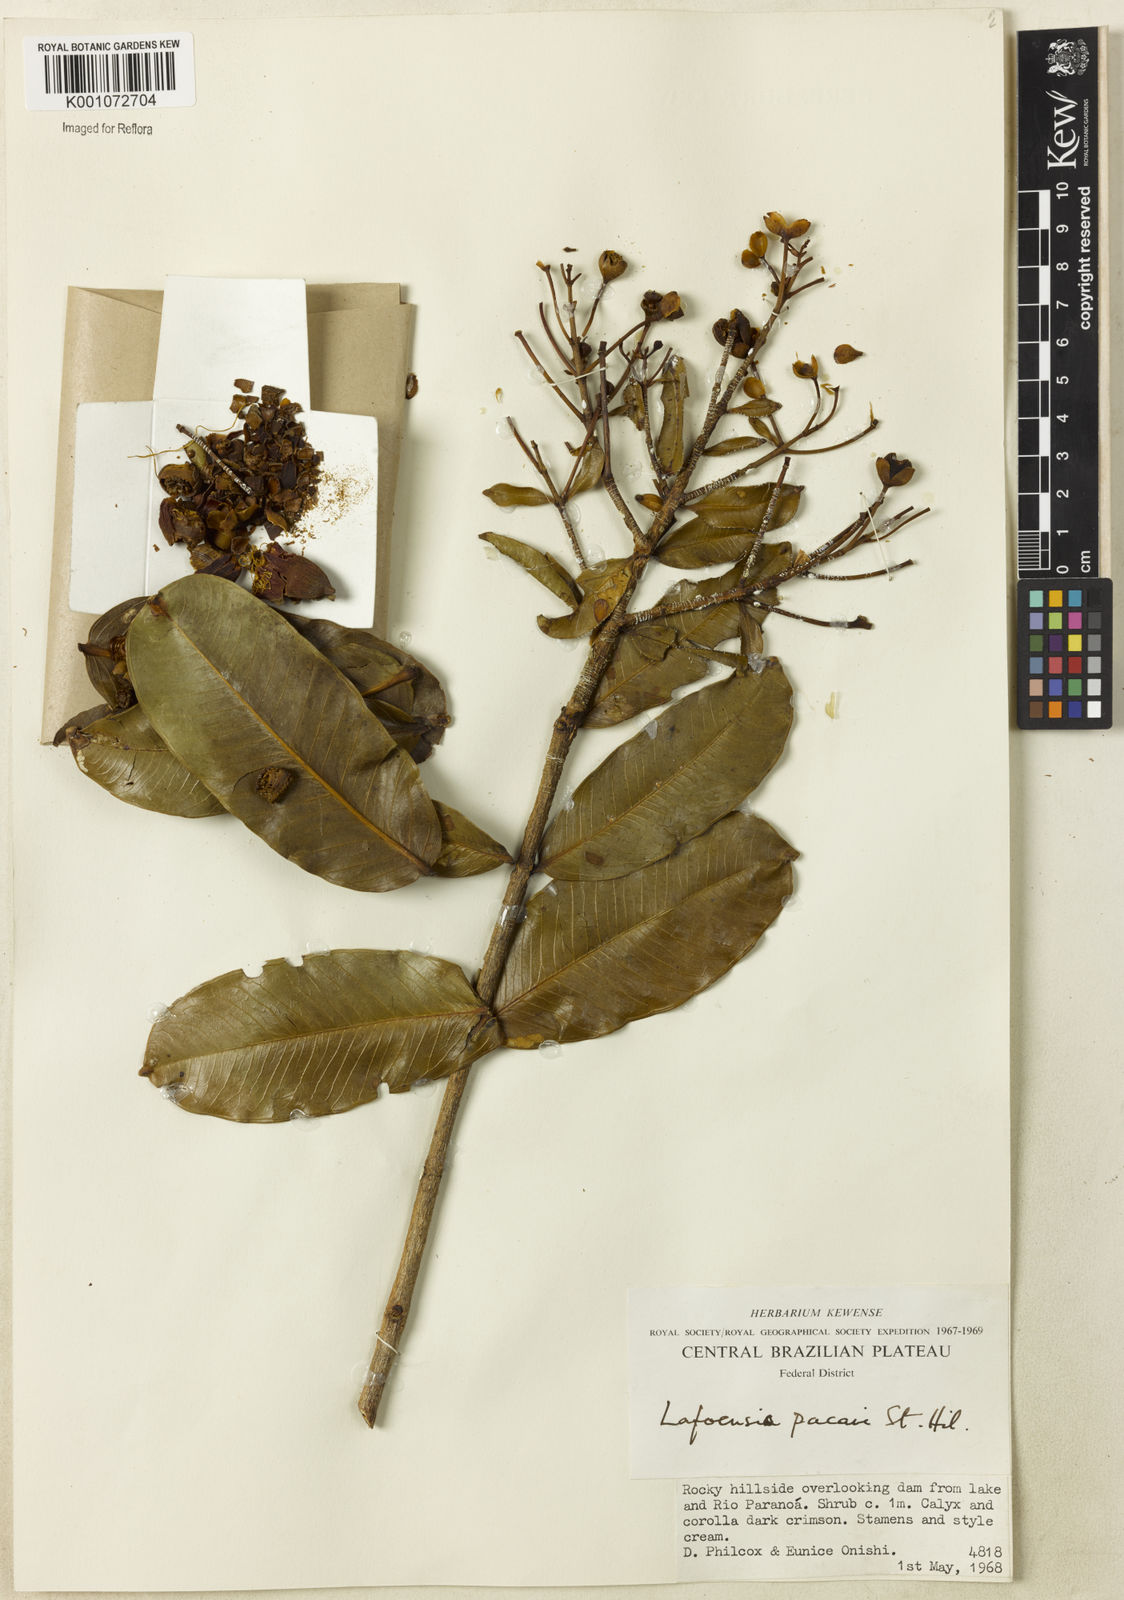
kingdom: Plantae
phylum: Tracheophyta
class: Magnoliopsida
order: Myrtales
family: Lythraceae
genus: Lafoensia
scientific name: Lafoensia pacari
